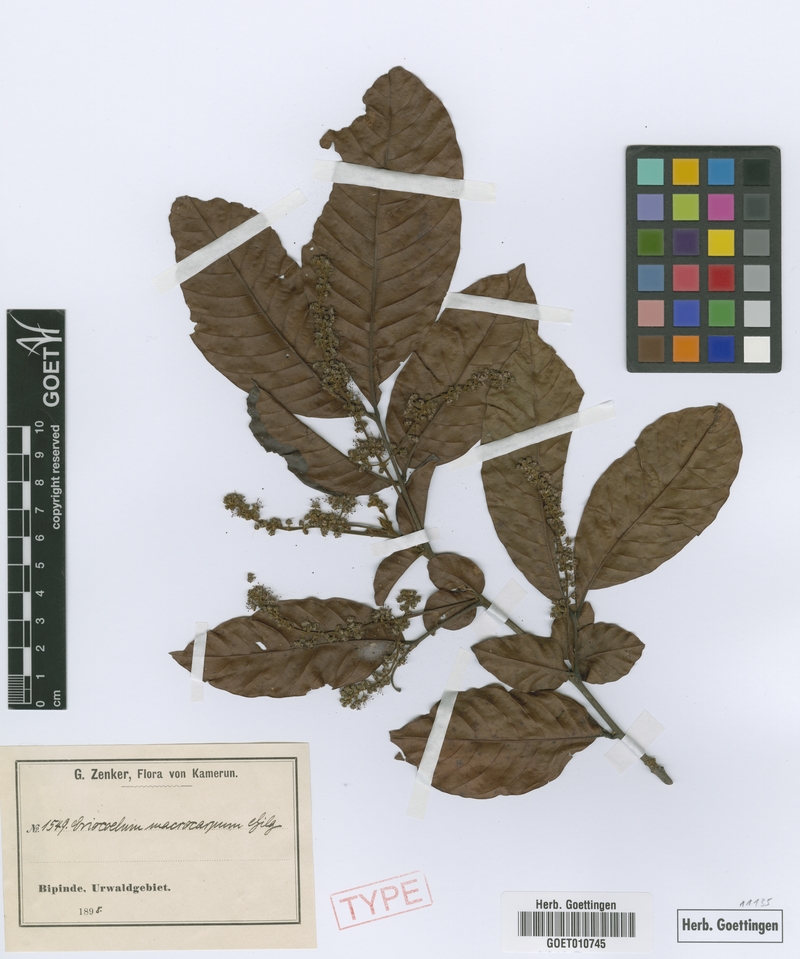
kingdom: Plantae
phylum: Tracheophyta
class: Magnoliopsida
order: Sapindales
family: Sapindaceae
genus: Eriocoelum
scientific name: Eriocoelum macrocarpum
